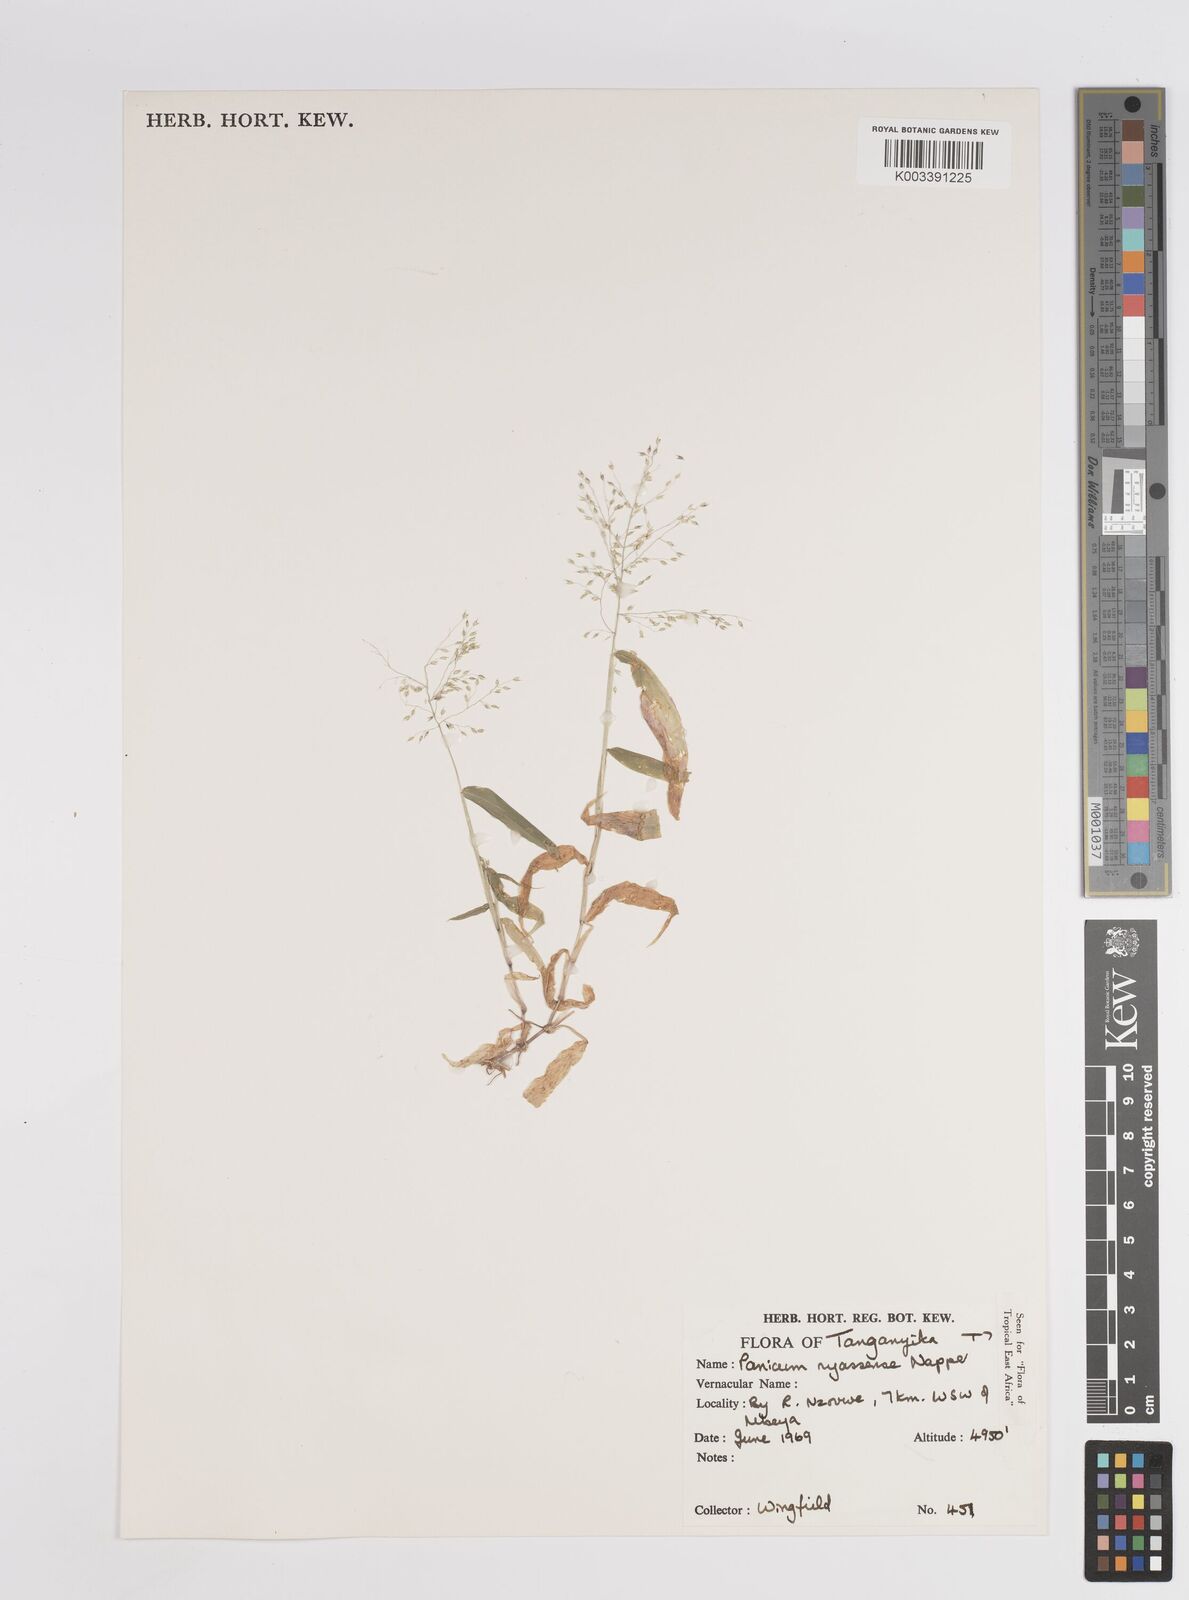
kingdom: Plantae
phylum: Tracheophyta
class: Liliopsida
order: Poales
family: Poaceae
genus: Panicum
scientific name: Panicum delicatulum
